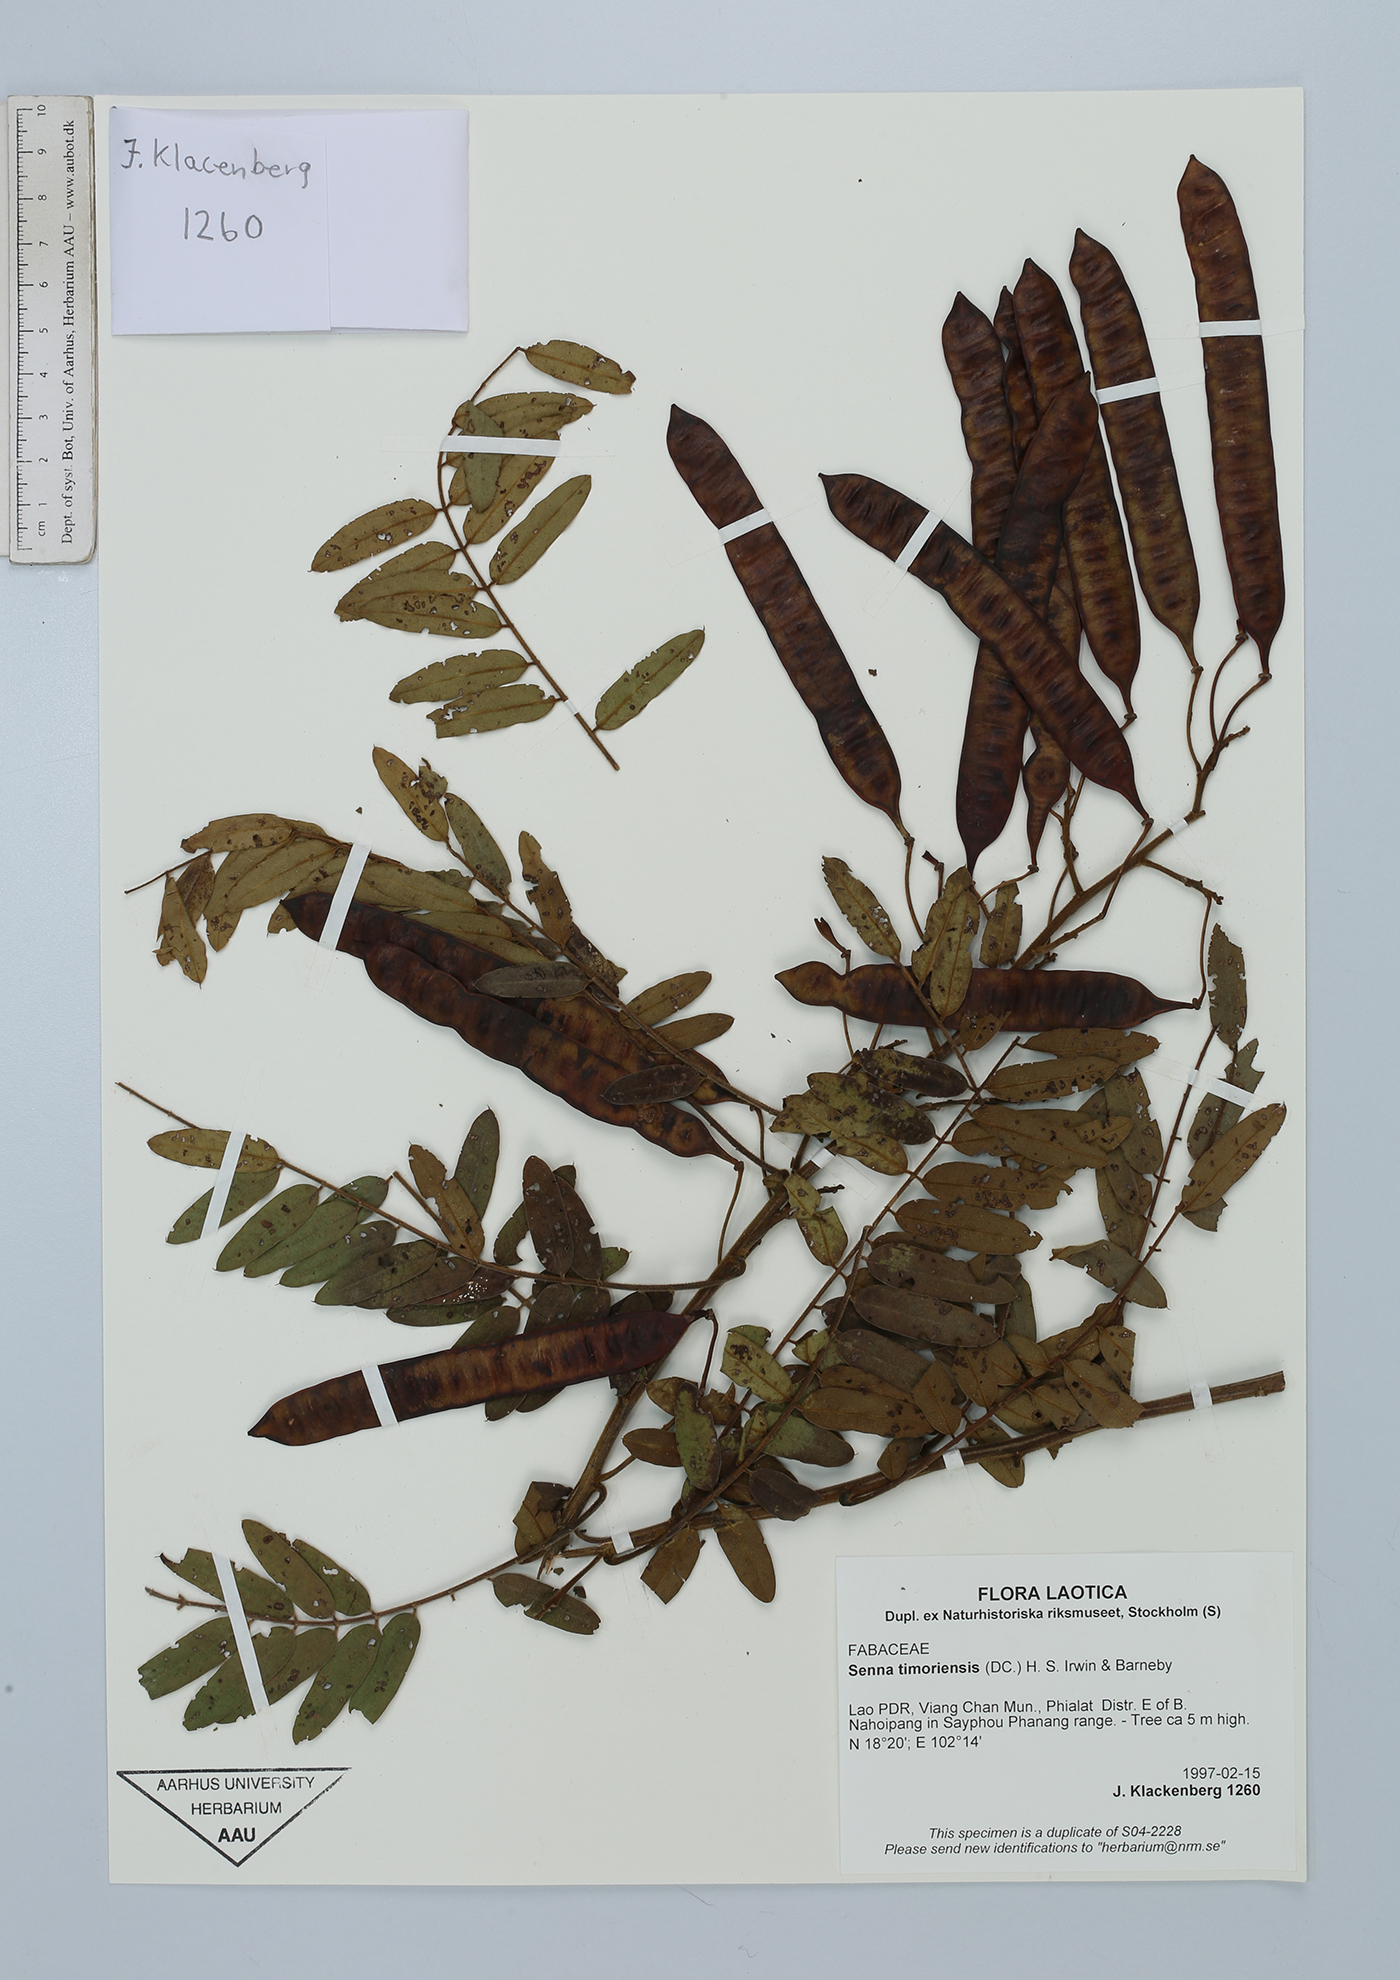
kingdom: Plantae
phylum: Tracheophyta
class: Magnoliopsida
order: Fabales
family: Fabaceae
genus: Senna
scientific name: Senna timoriensis
